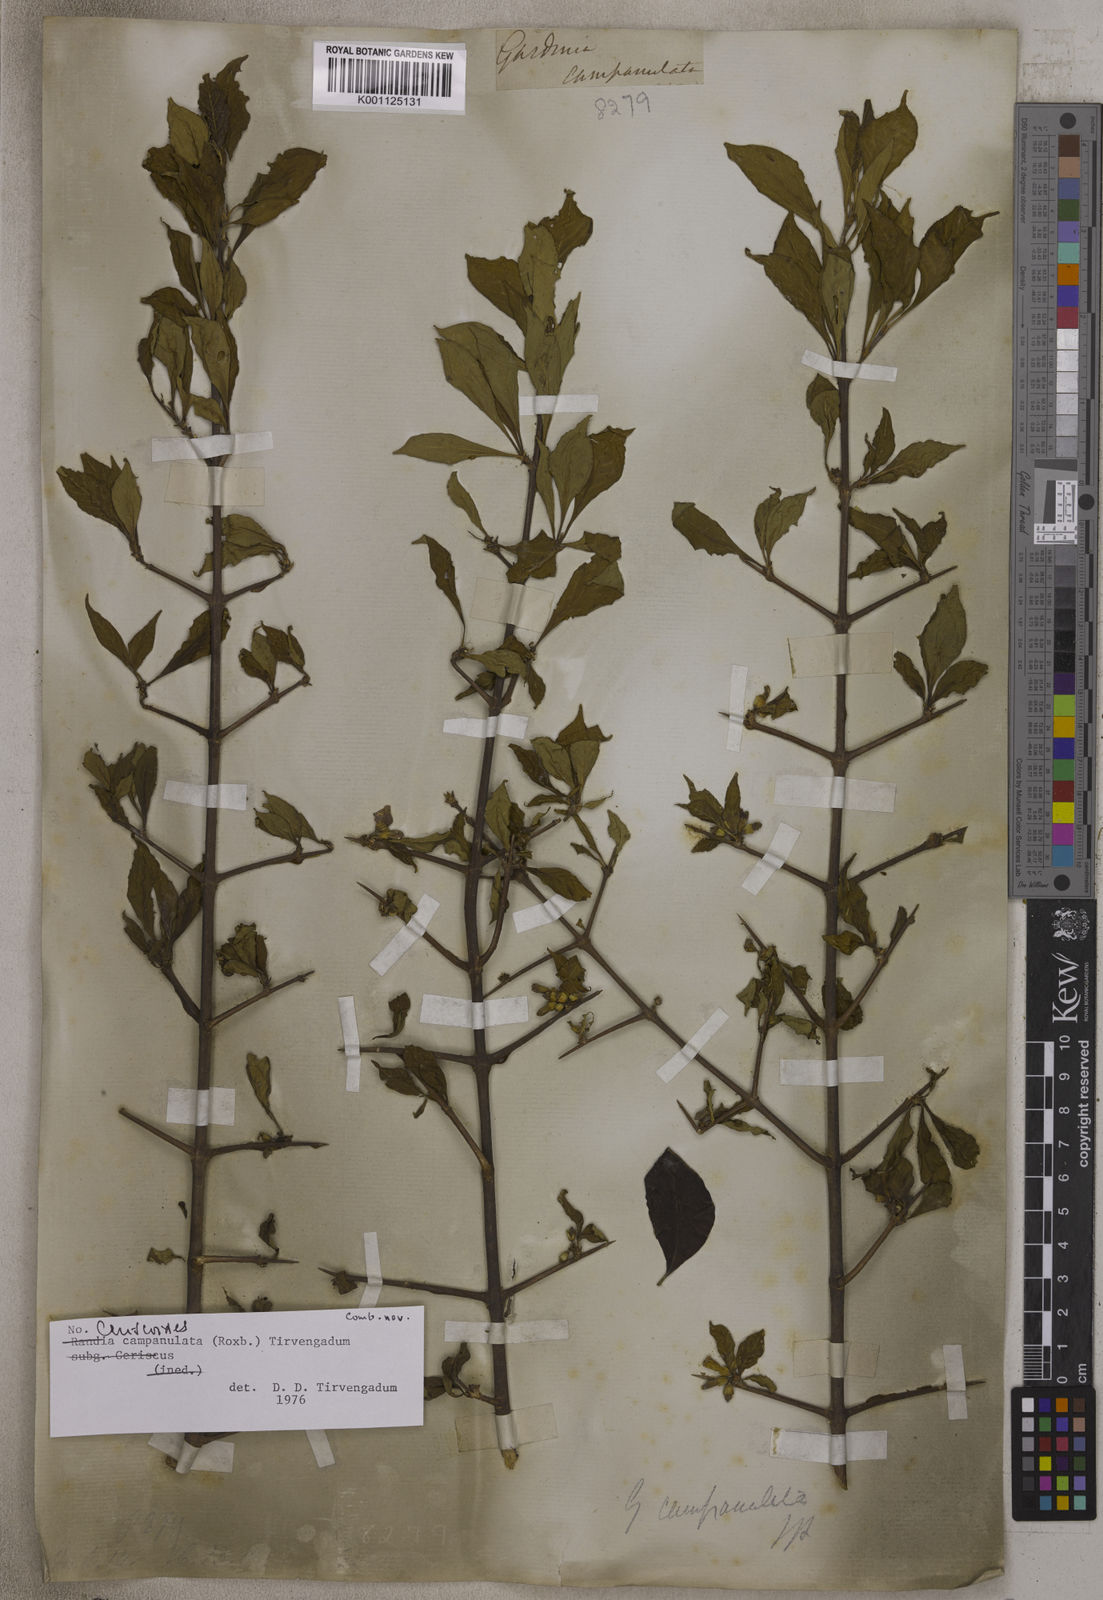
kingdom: Plantae
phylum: Tracheophyta
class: Magnoliopsida
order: Gentianales
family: Rubiaceae
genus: Ceriscoides
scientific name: Ceriscoides campanulata
